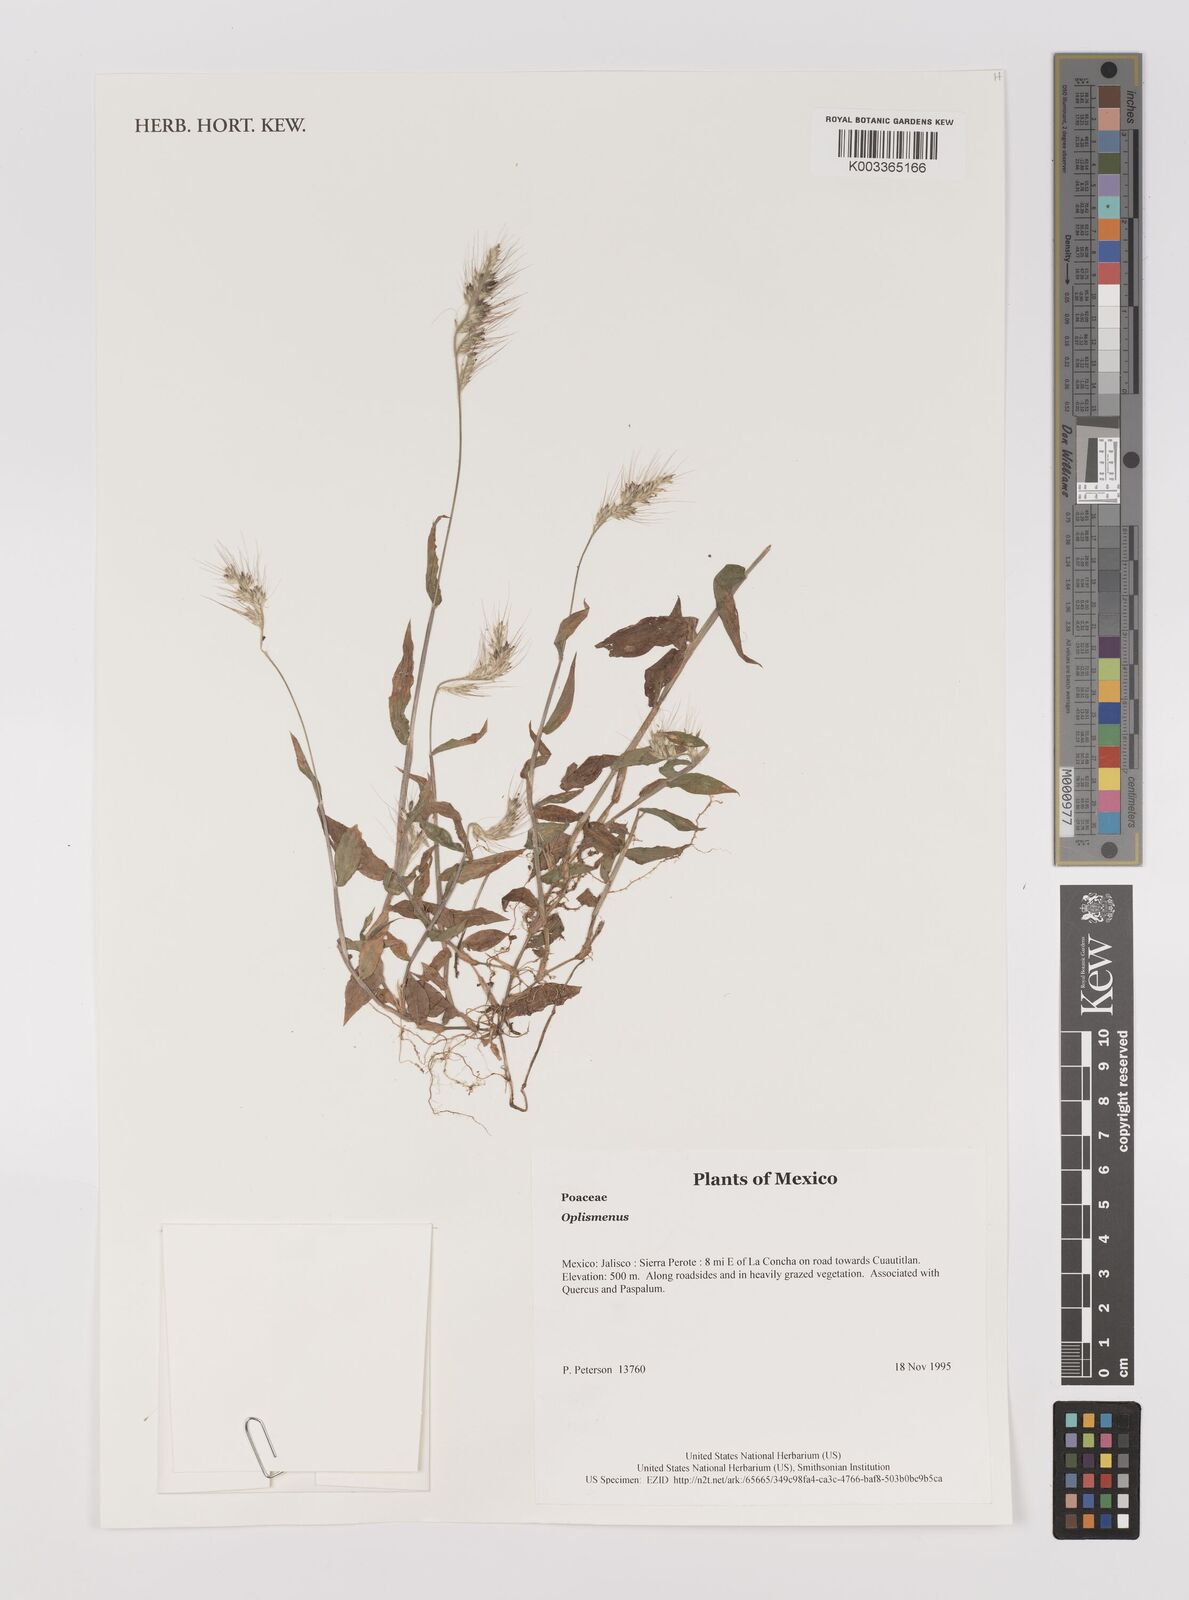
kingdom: Plantae
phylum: Tracheophyta
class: Liliopsida
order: Poales
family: Poaceae
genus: Oplismenus
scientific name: Oplismenus
